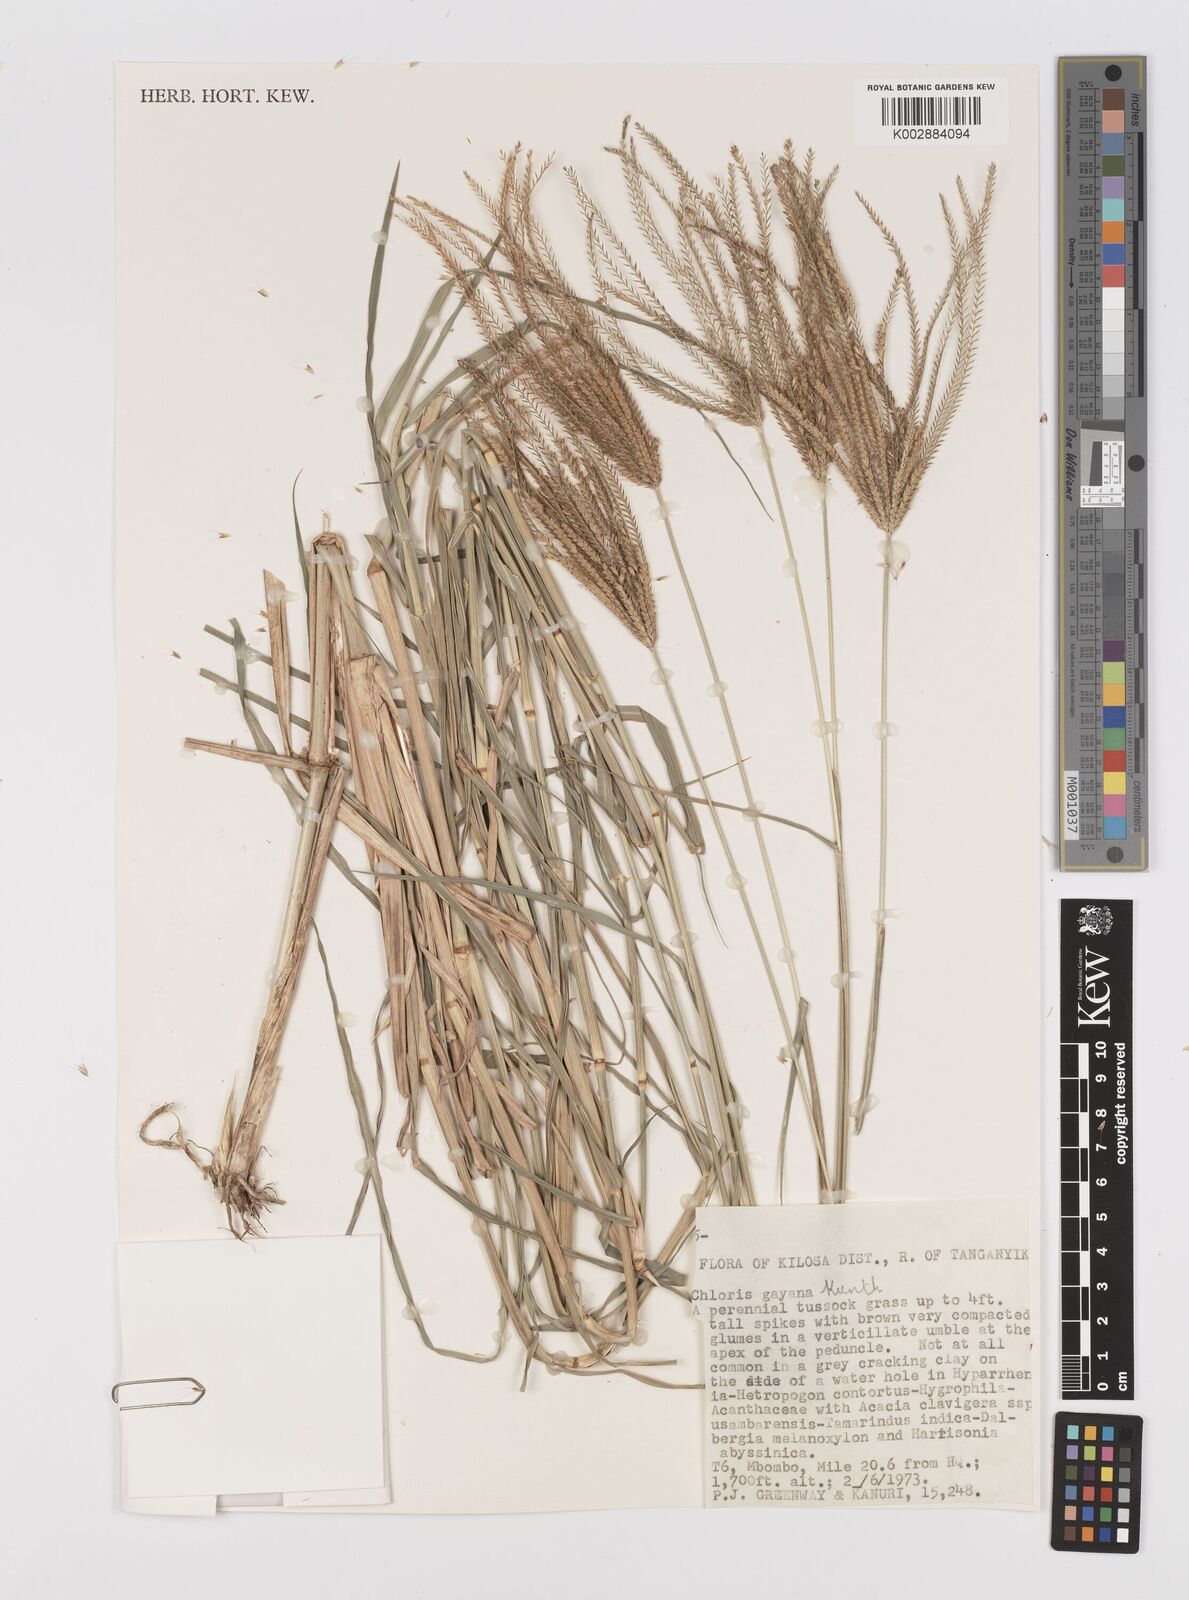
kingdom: Plantae
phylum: Tracheophyta
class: Liliopsida
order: Poales
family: Poaceae
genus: Chloris
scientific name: Chloris gayana
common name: Rhodes grass
